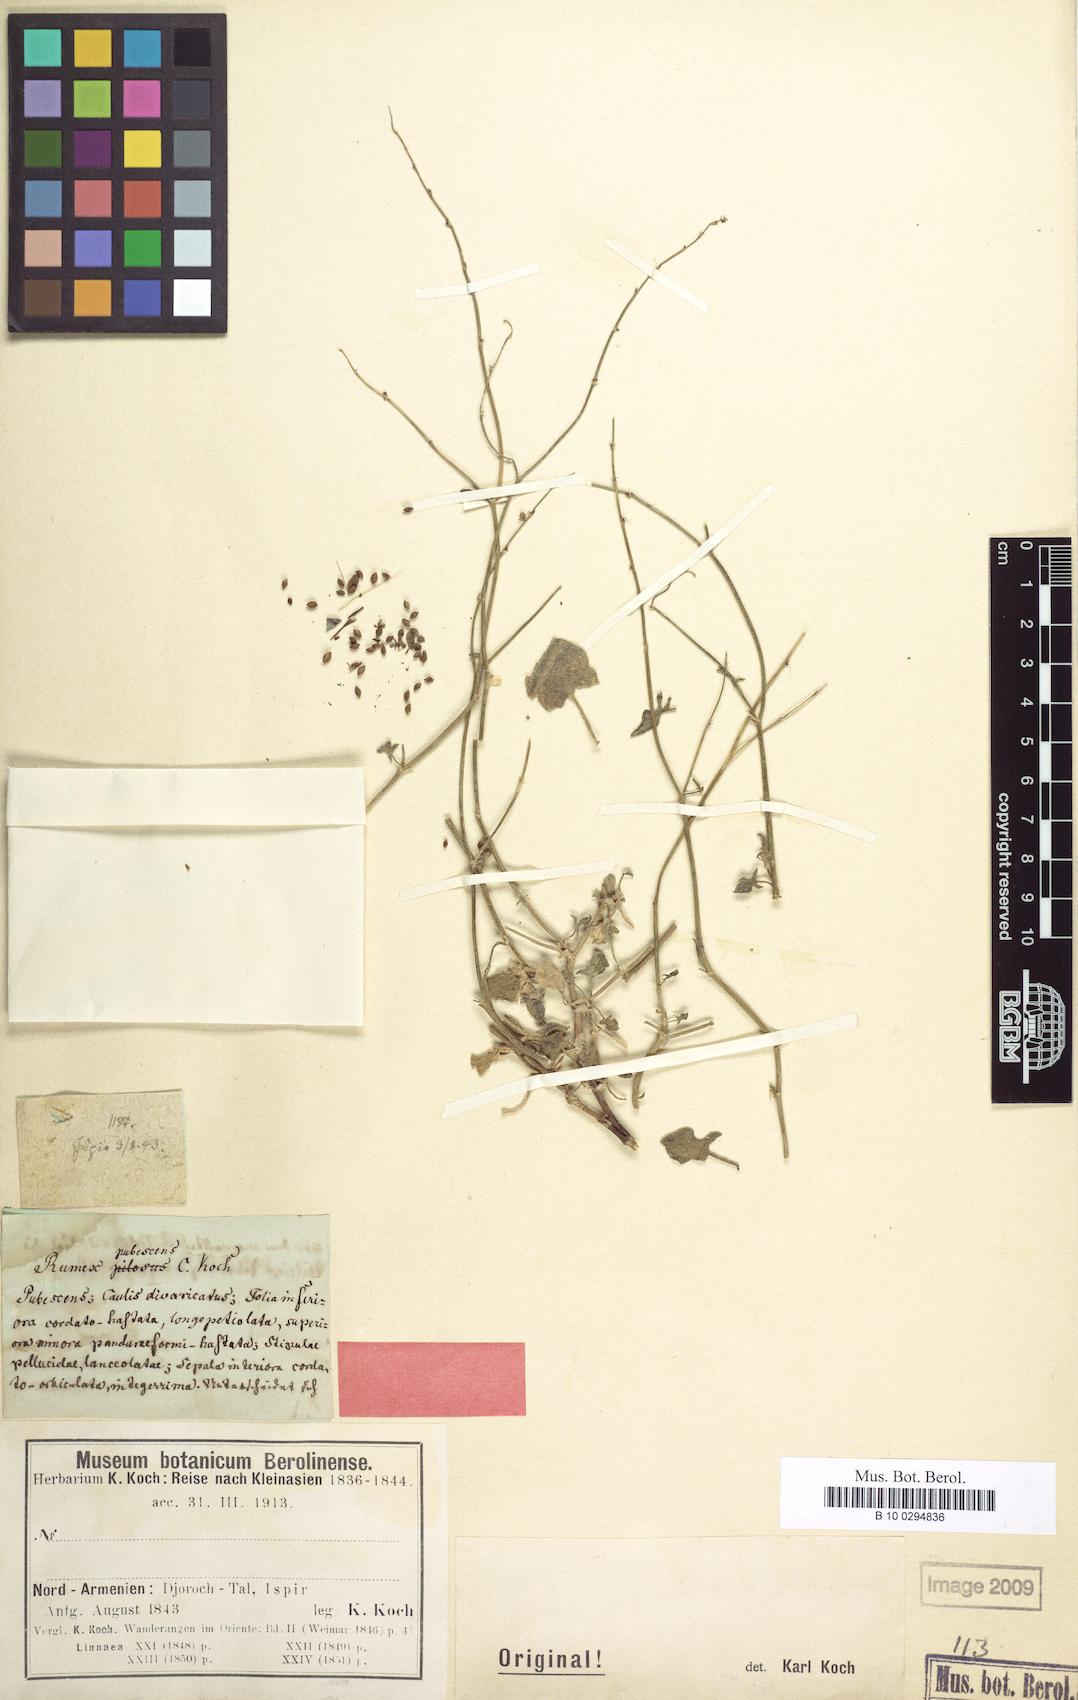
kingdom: Plantae
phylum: Tracheophyta
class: Magnoliopsida
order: Caryophyllales
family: Polygonaceae
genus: Rumex
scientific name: Rumex scutatus
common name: French sorrel
